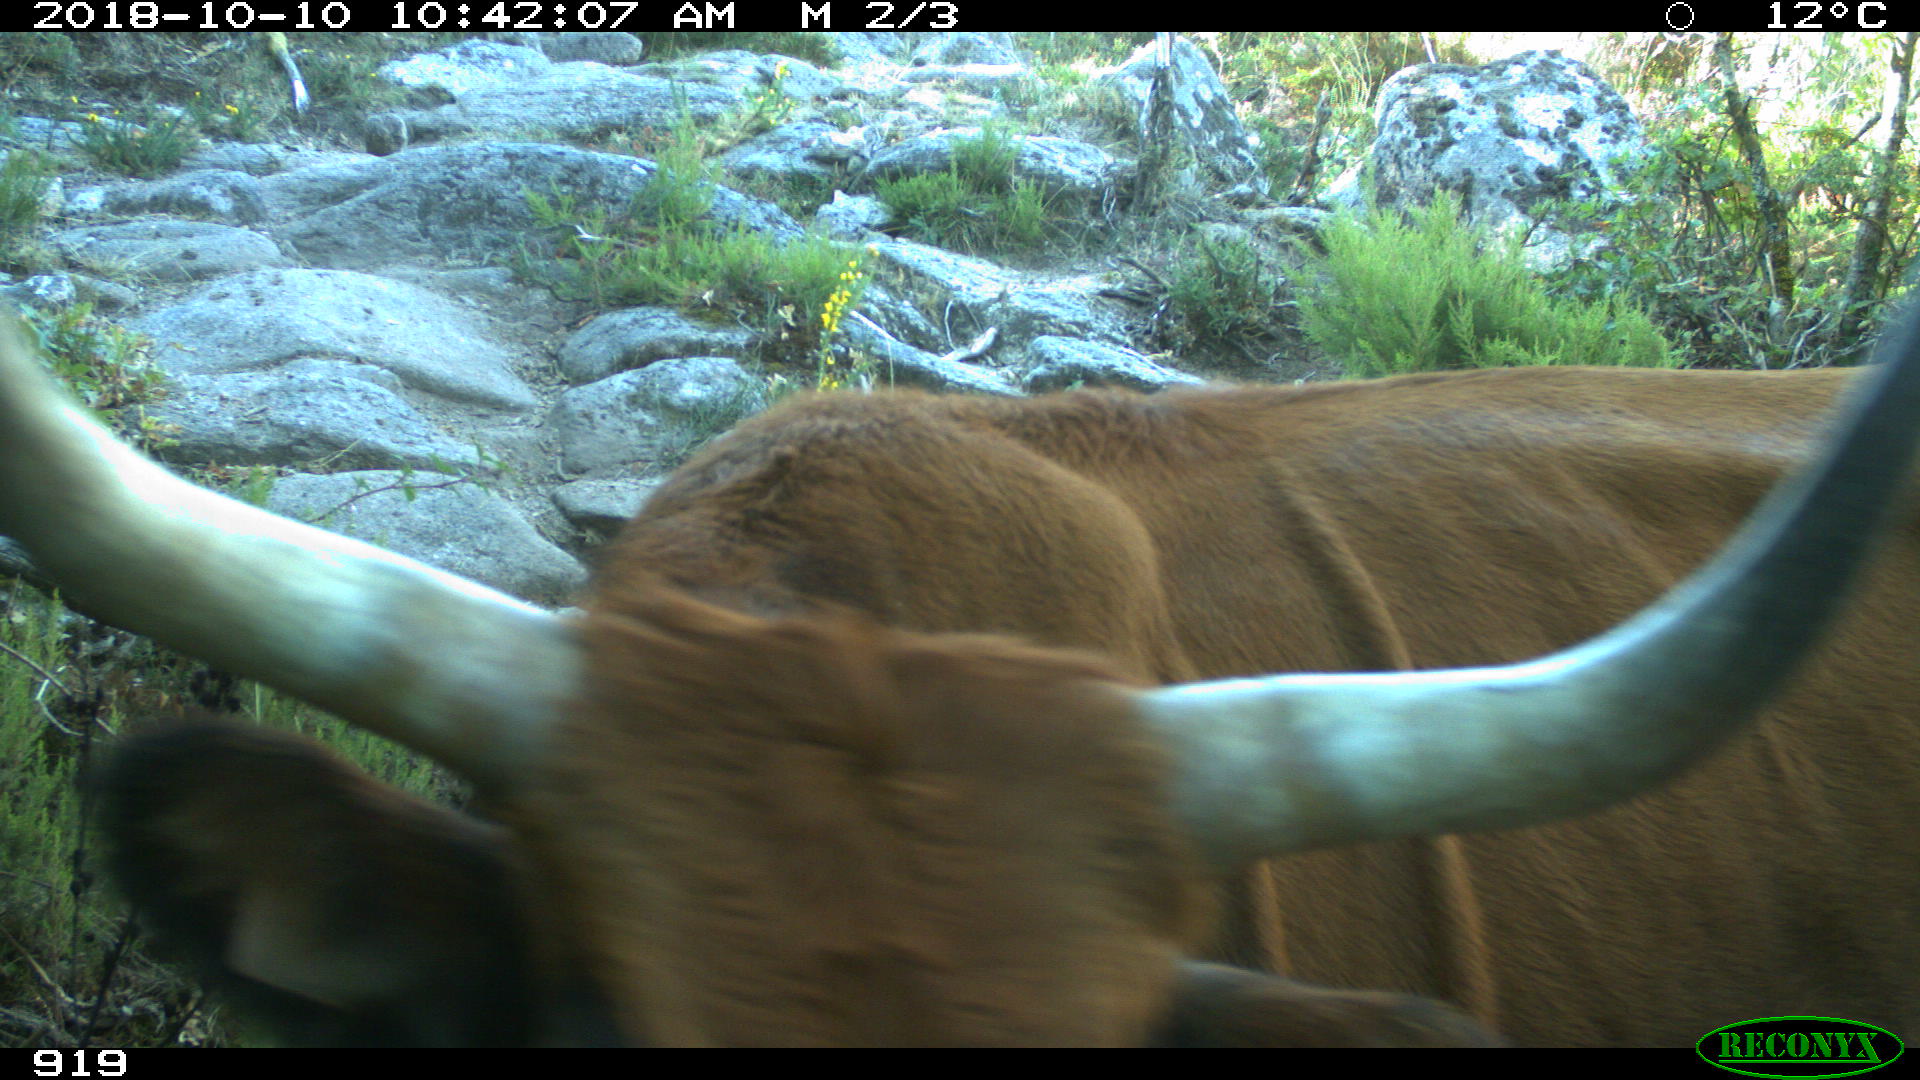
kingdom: Animalia
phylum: Chordata
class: Mammalia
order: Artiodactyla
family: Bovidae
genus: Bos
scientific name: Bos taurus
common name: Domesticated cattle
